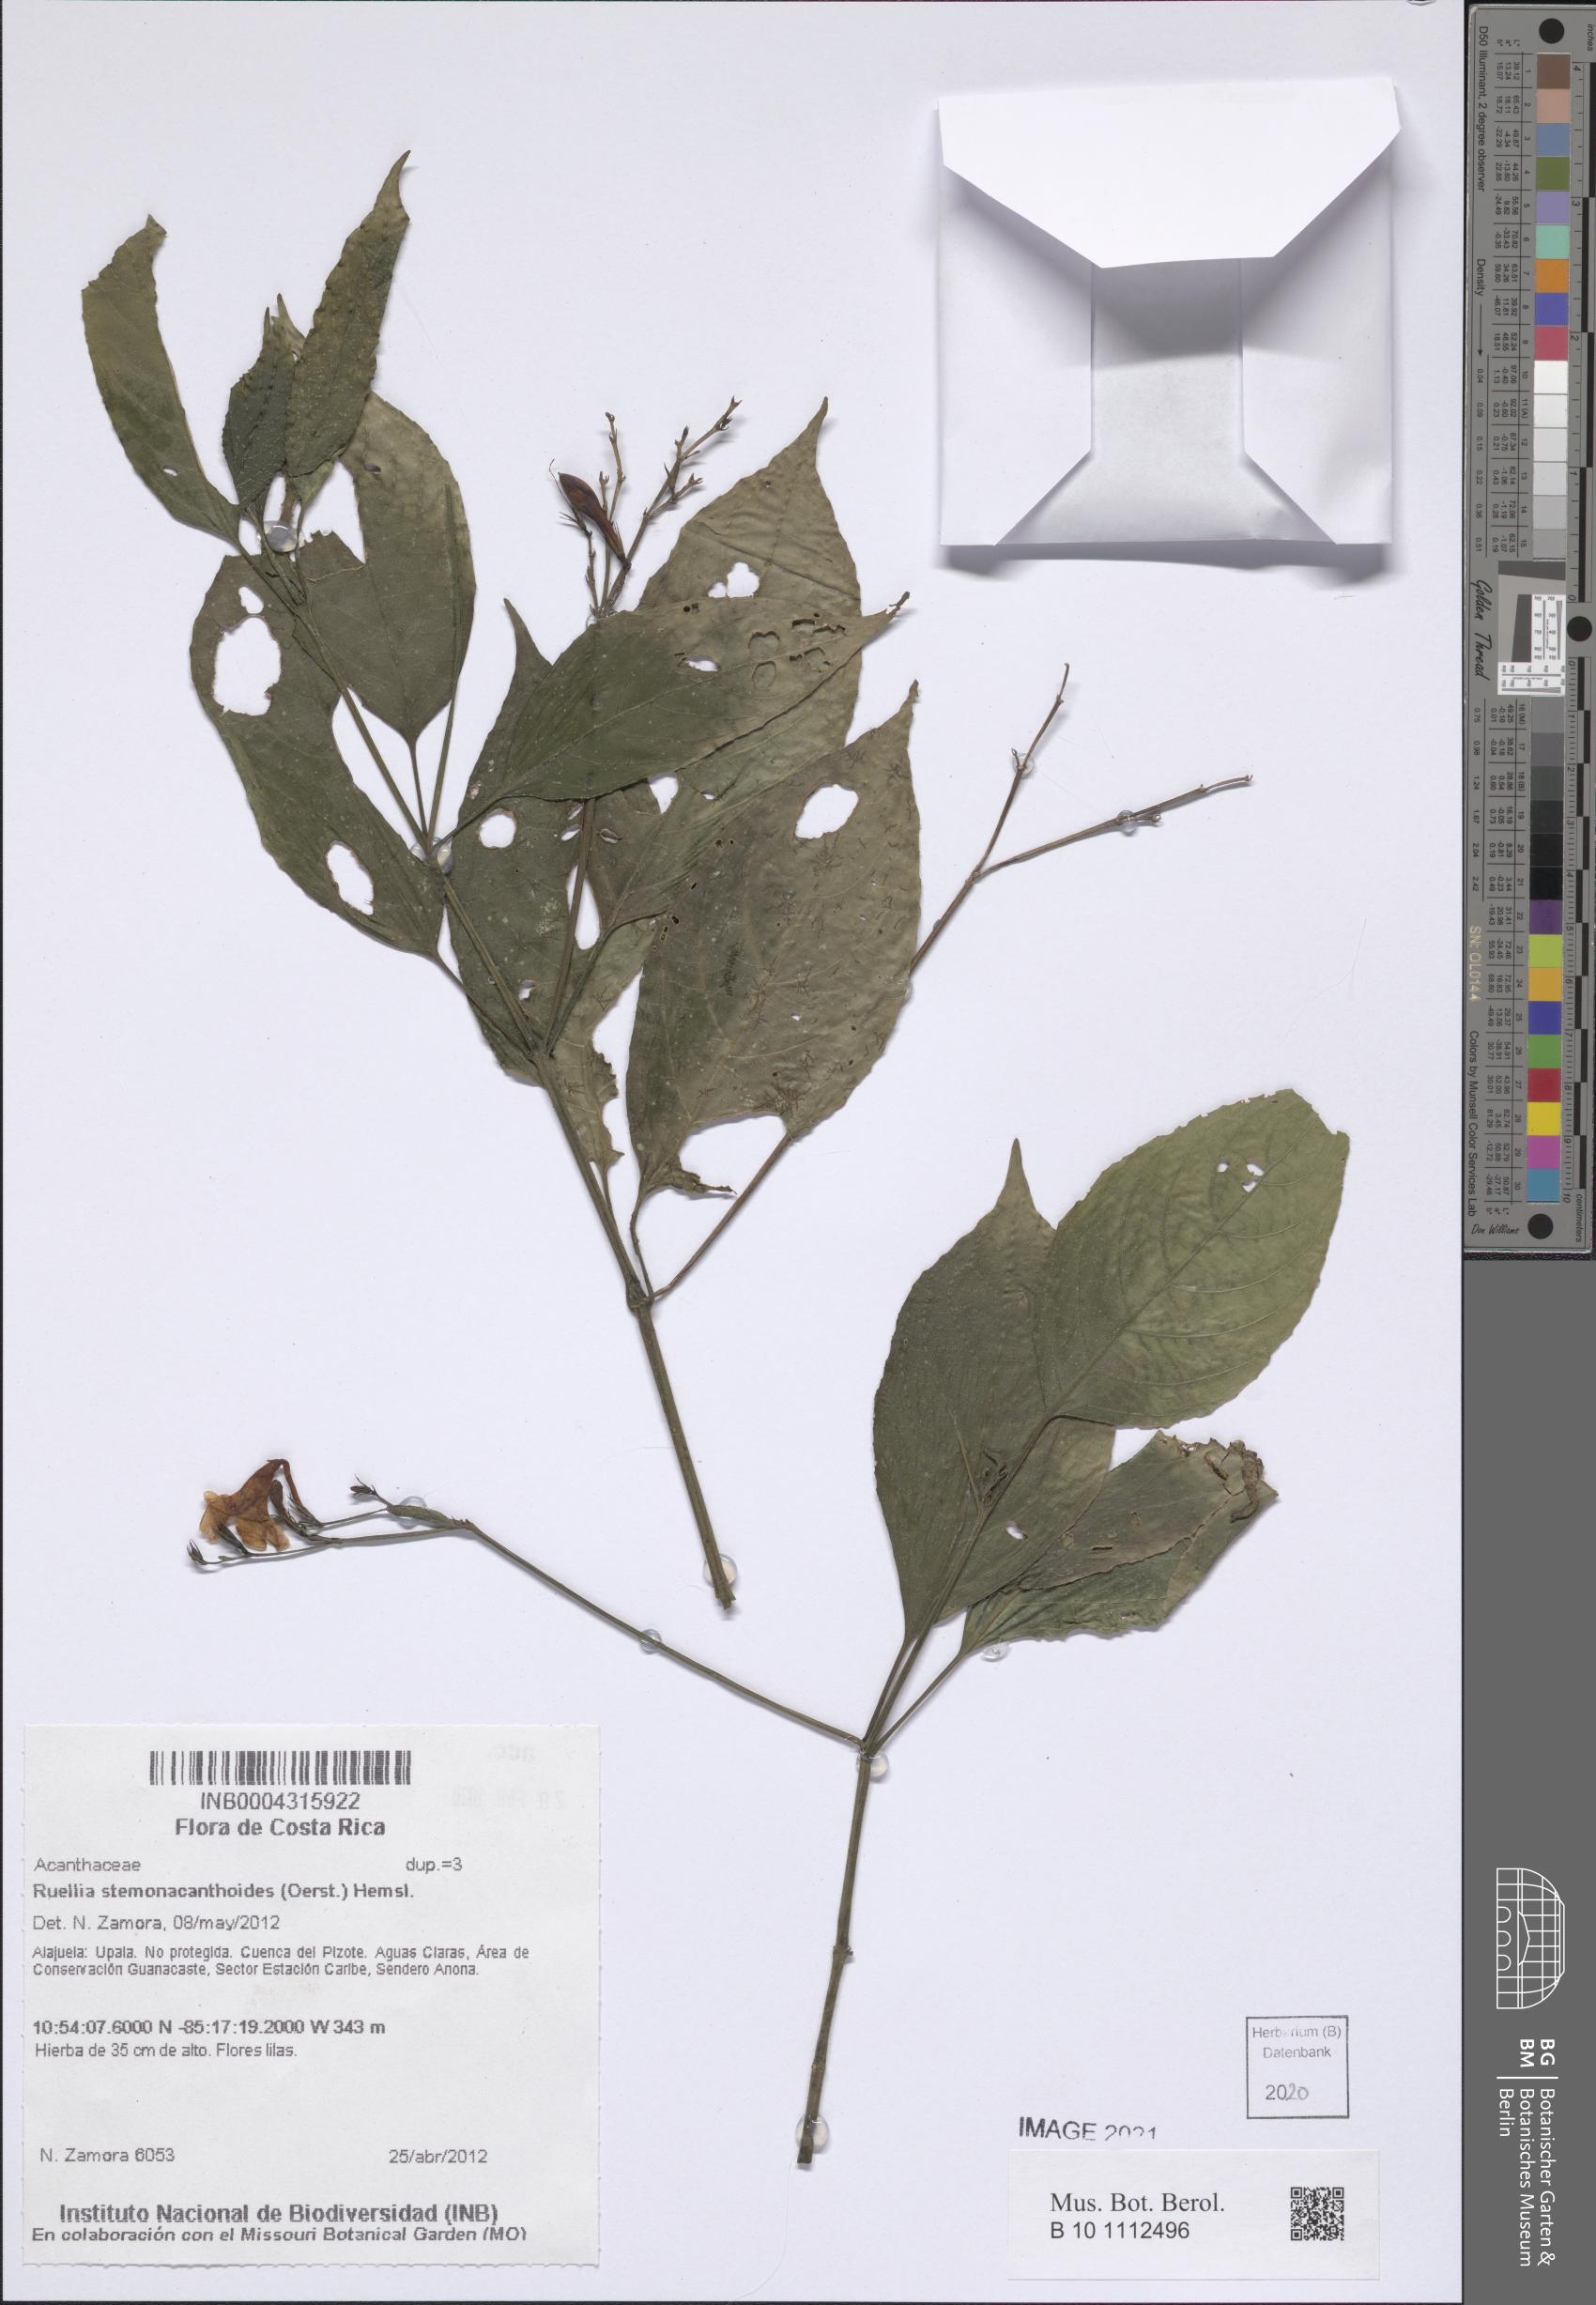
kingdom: Plantae
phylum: Tracheophyta
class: Magnoliopsida
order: Lamiales
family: Acanthaceae
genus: Ruellia
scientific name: Ruellia stemonacanthoides
